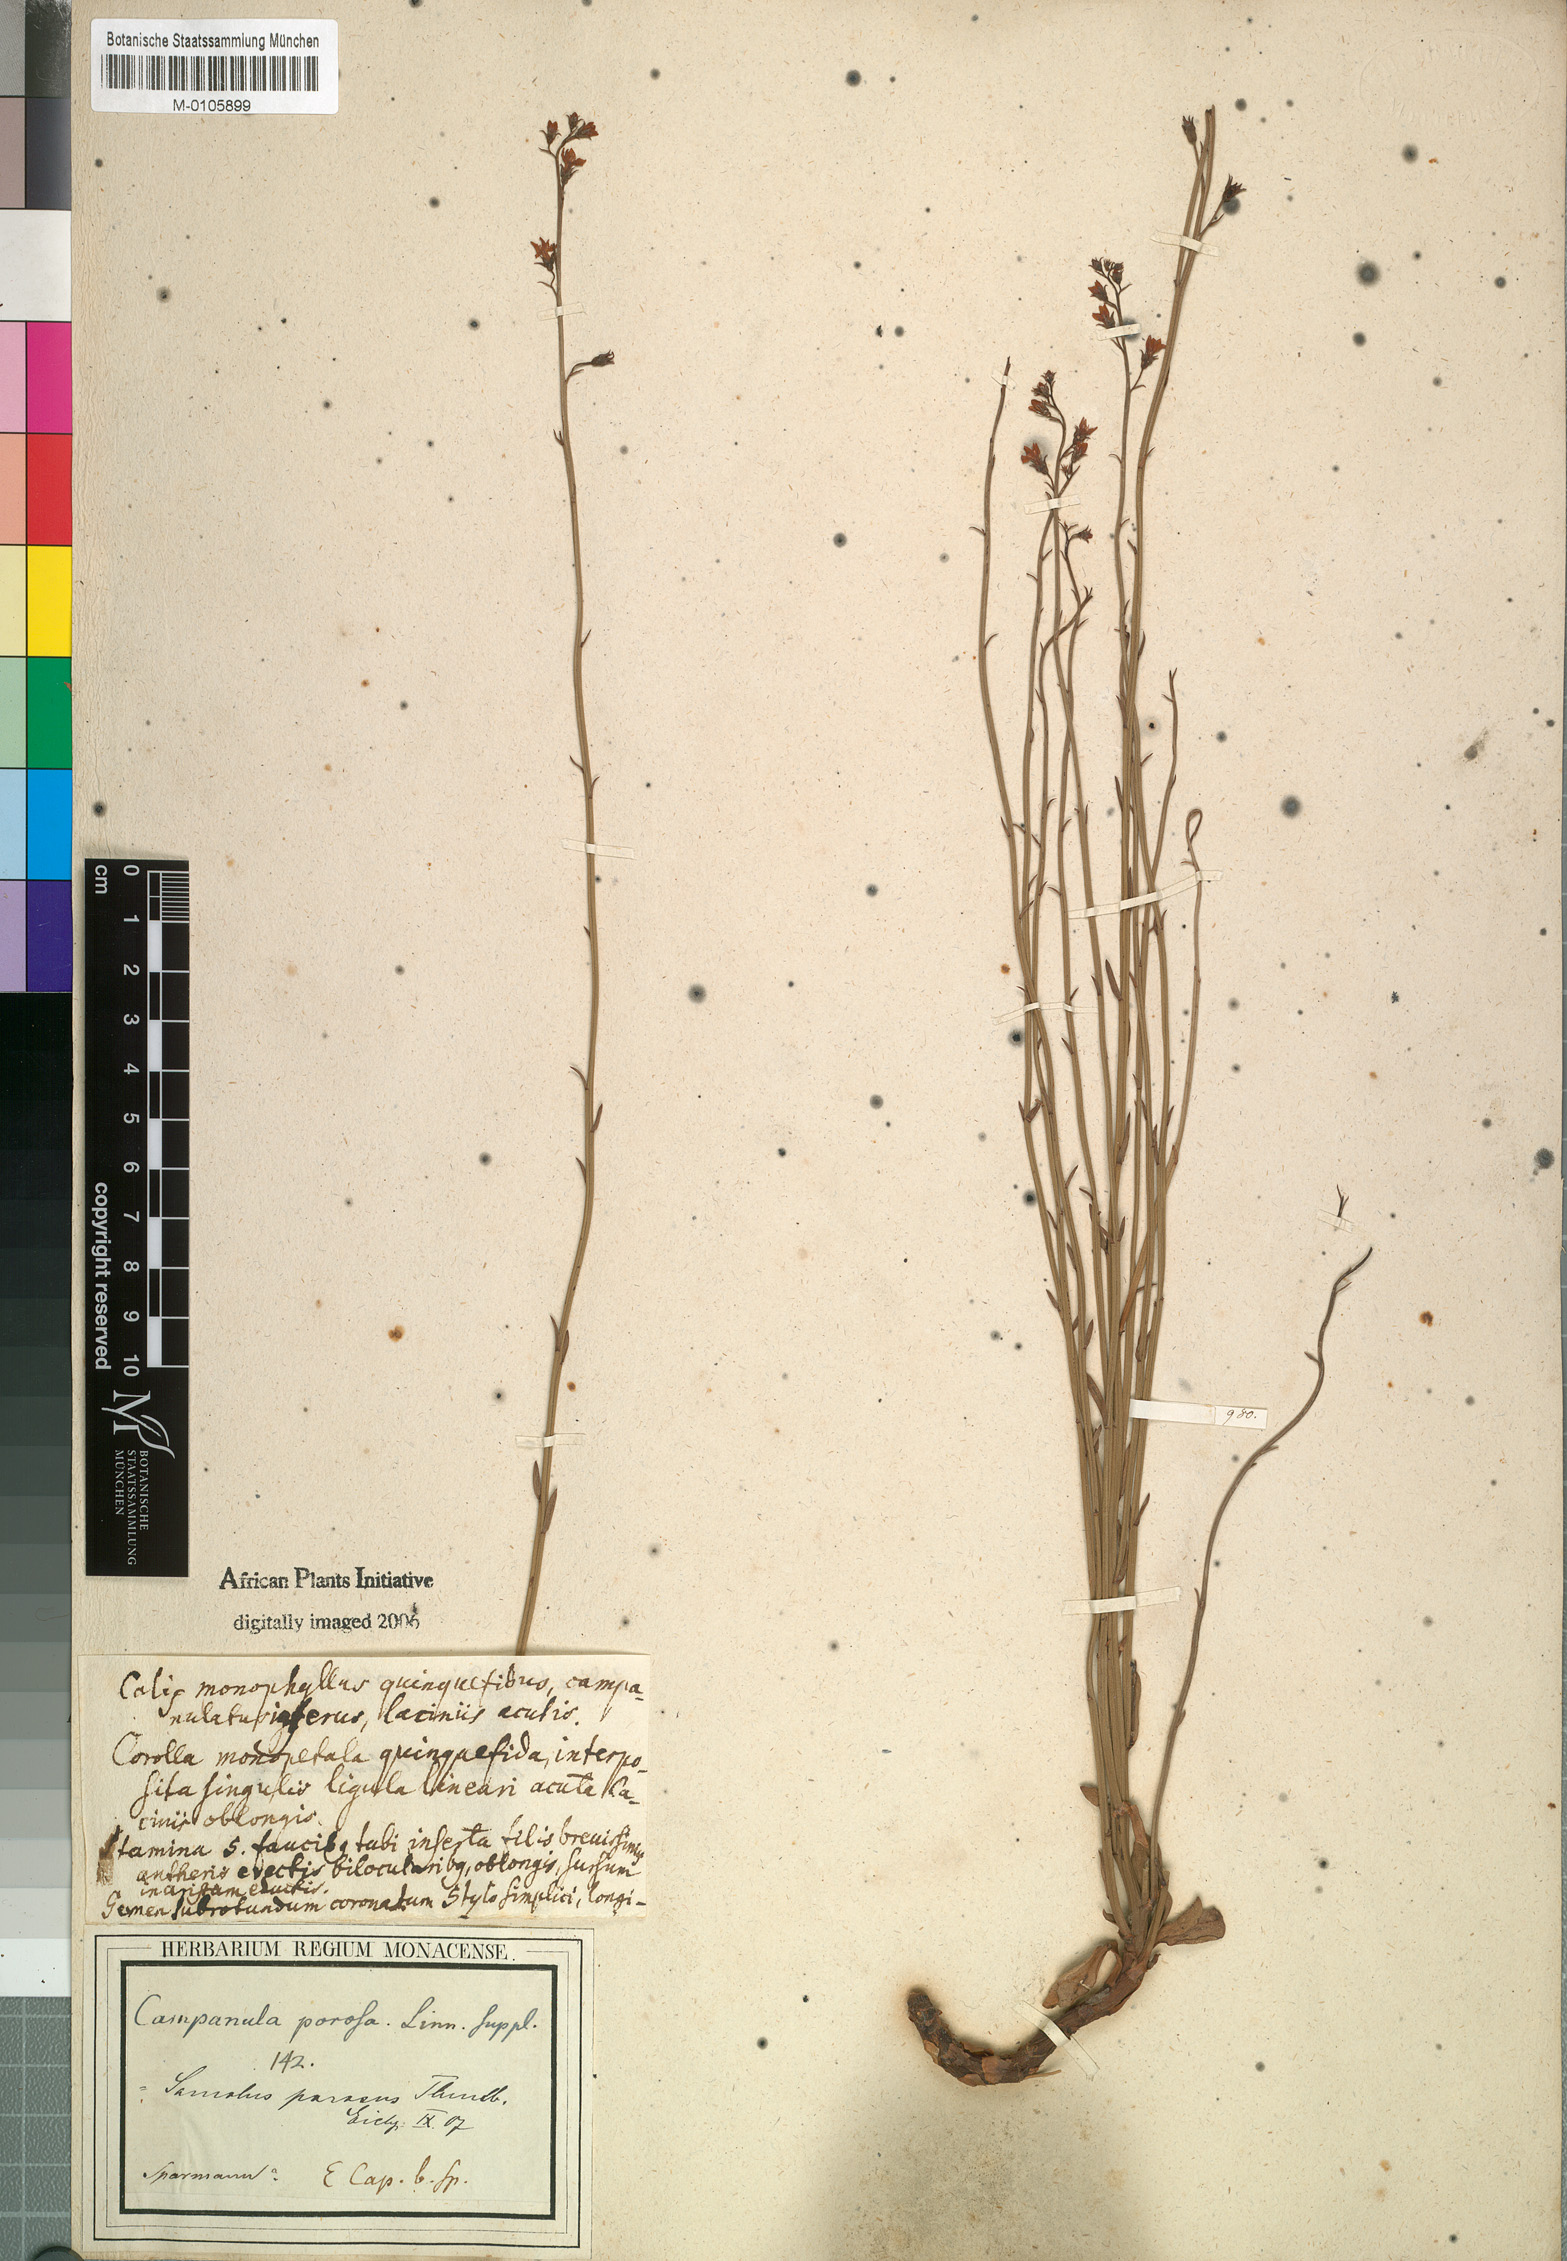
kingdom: Plantae
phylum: Tracheophyta
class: Magnoliopsida
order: Ericales
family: Primulaceae
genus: Samolus
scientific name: Samolus porosus
